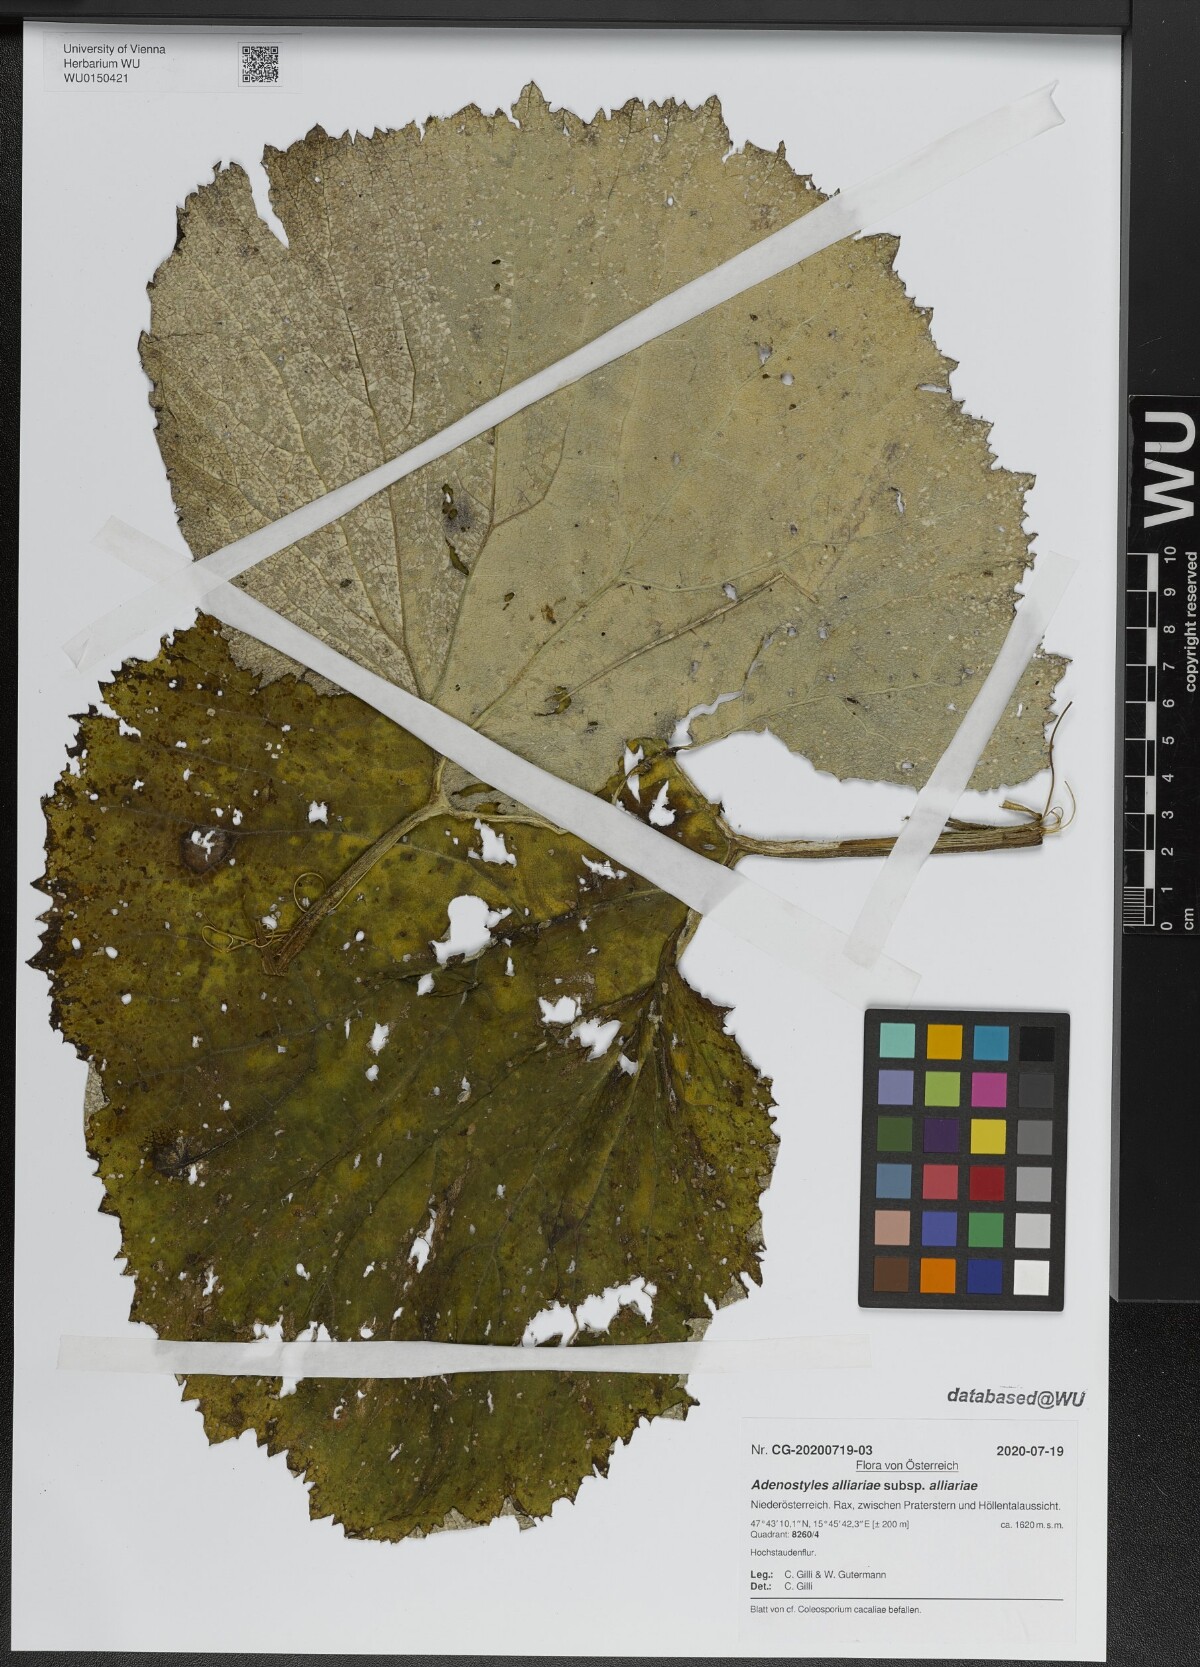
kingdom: Plantae
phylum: Tracheophyta
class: Magnoliopsida
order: Asterales
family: Asteraceae
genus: Adenostyles
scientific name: Adenostyles alliariae
